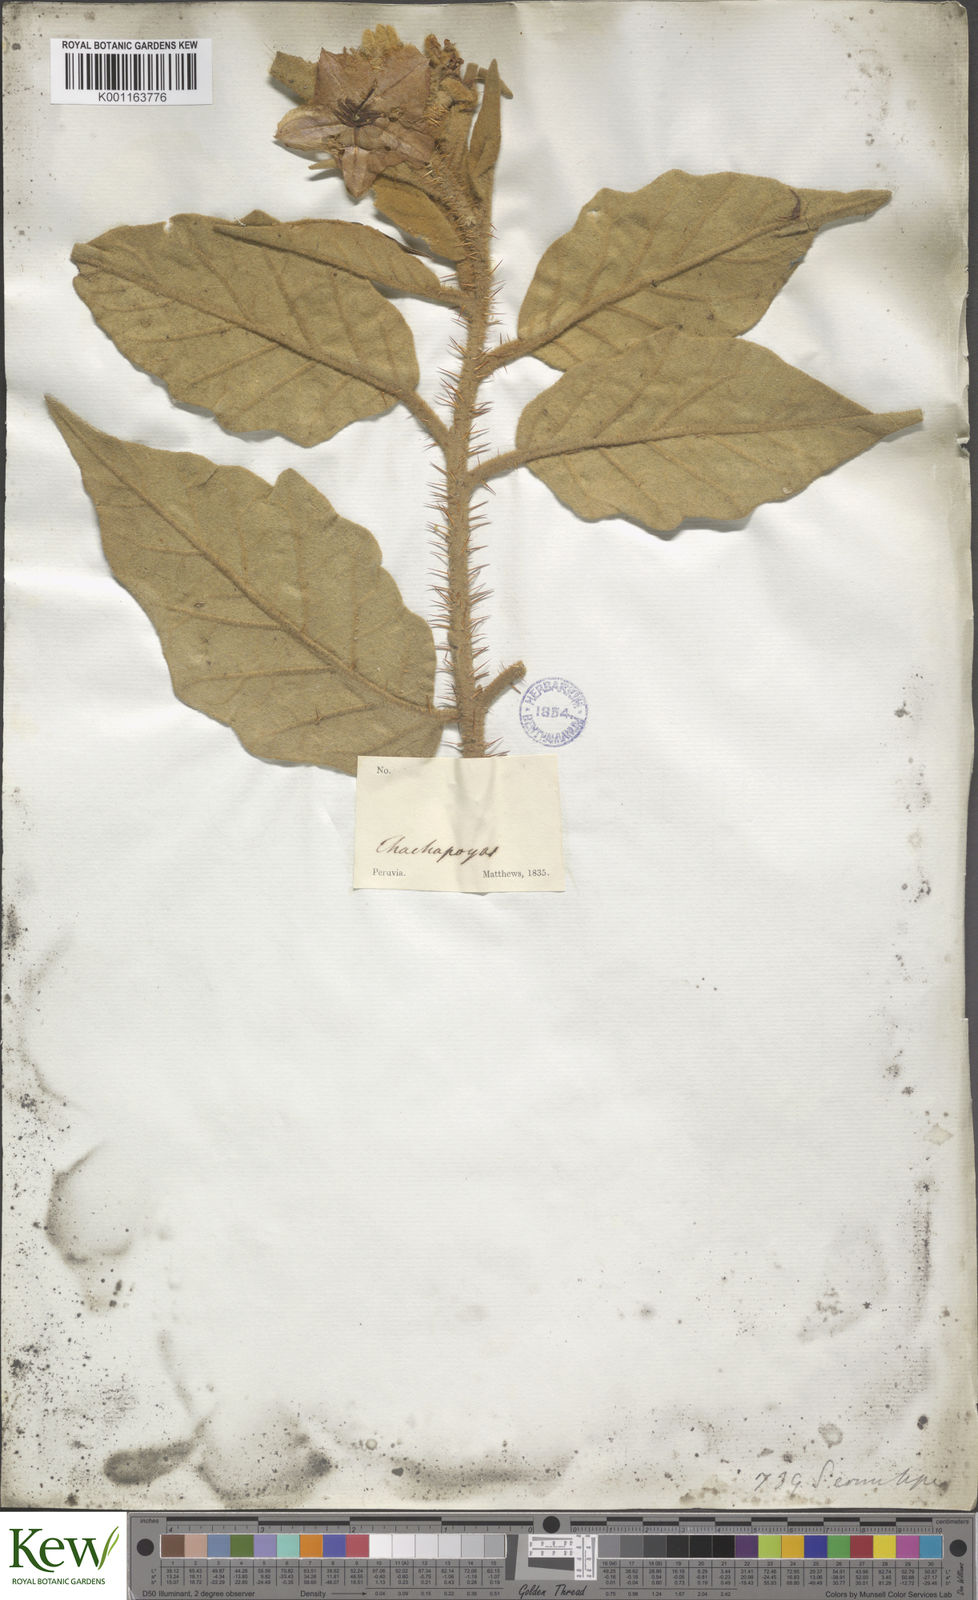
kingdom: Plantae
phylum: Tracheophyta
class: Magnoliopsida
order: Solanales
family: Solanaceae
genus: Solanum
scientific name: Solanum crinitipes
